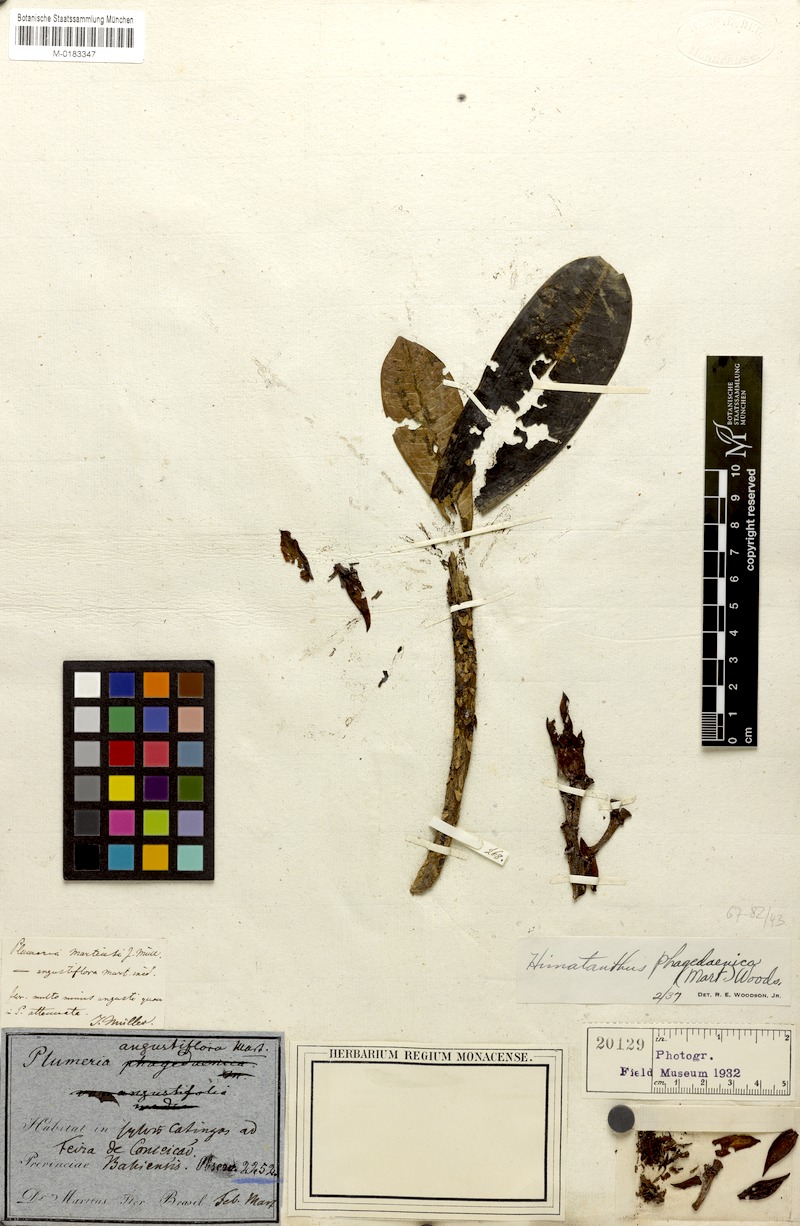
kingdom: Plantae
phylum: Tracheophyta
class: Magnoliopsida
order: Gentianales
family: Apocynaceae
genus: Himatanthus
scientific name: Himatanthus phagedaenicus
